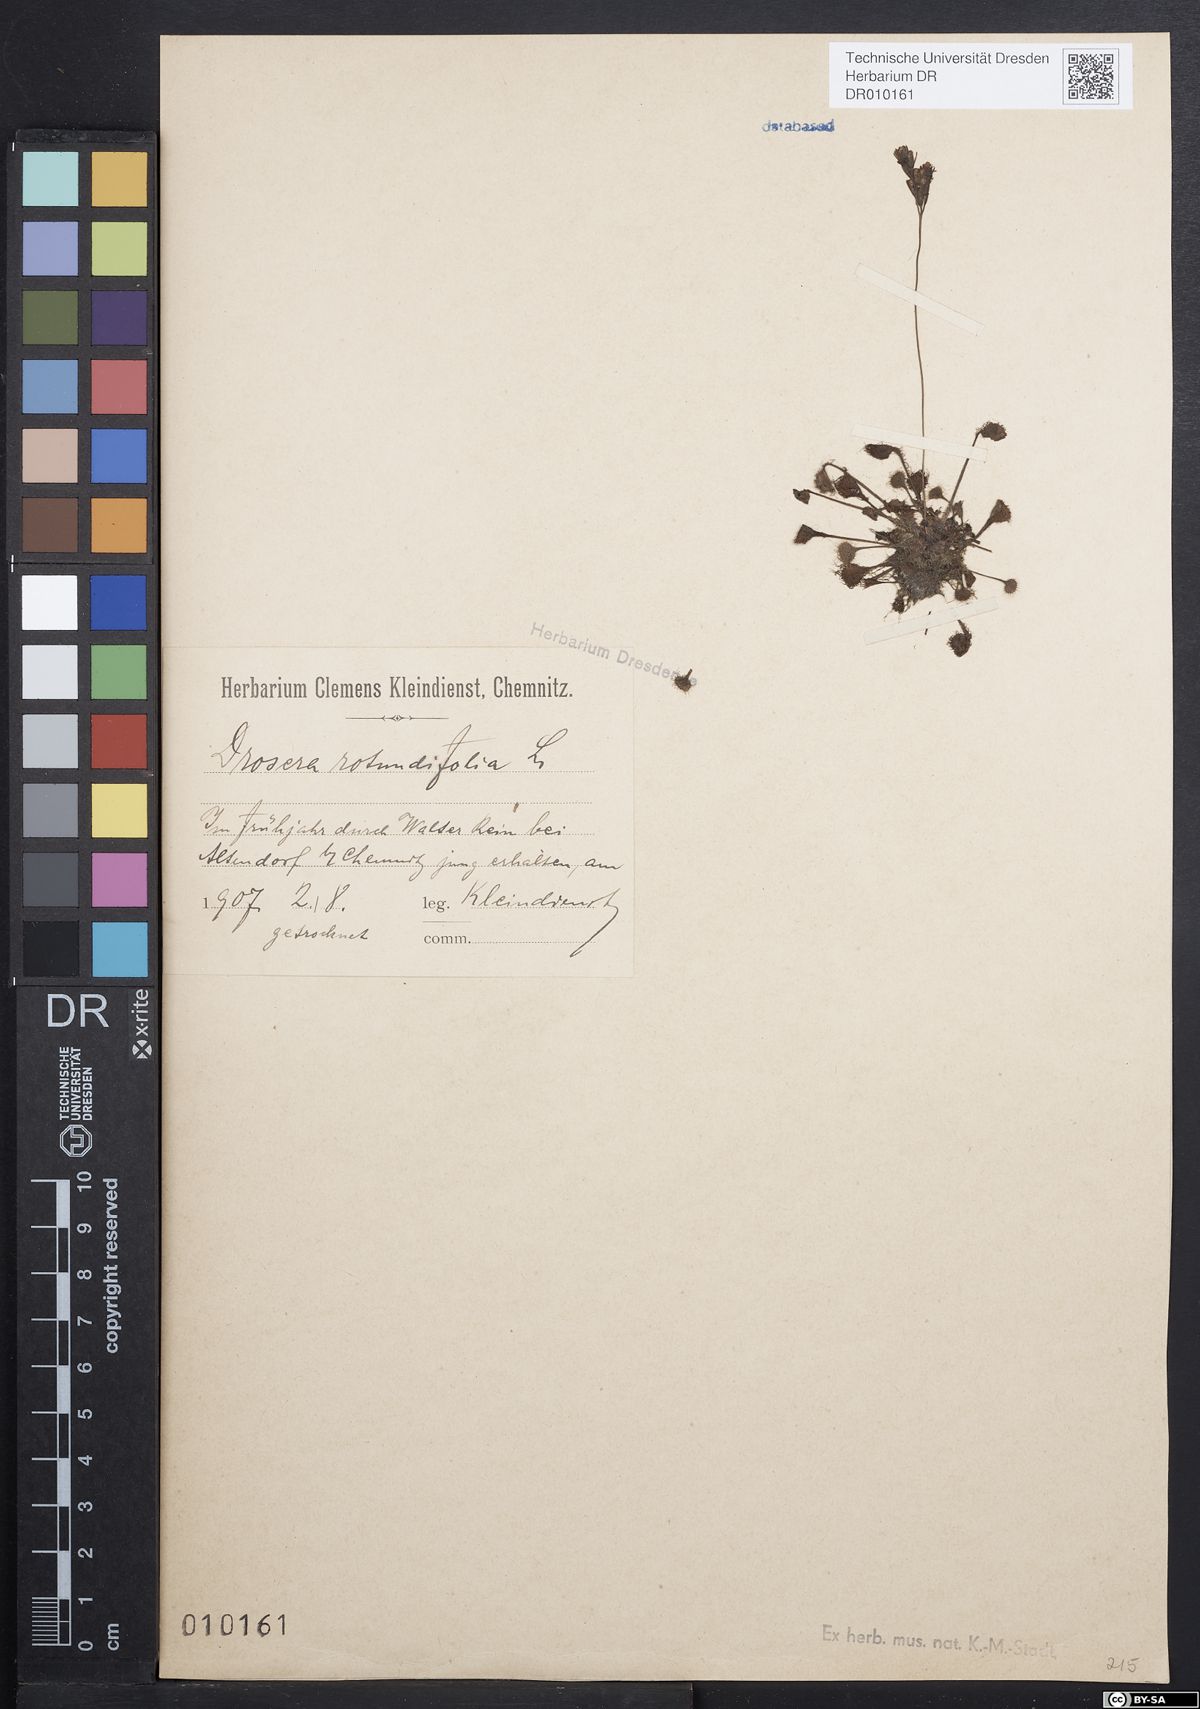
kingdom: Plantae
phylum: Tracheophyta
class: Magnoliopsida
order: Caryophyllales
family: Droseraceae
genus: Drosera
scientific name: Drosera rotundifolia
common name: Round-leaved sundew
